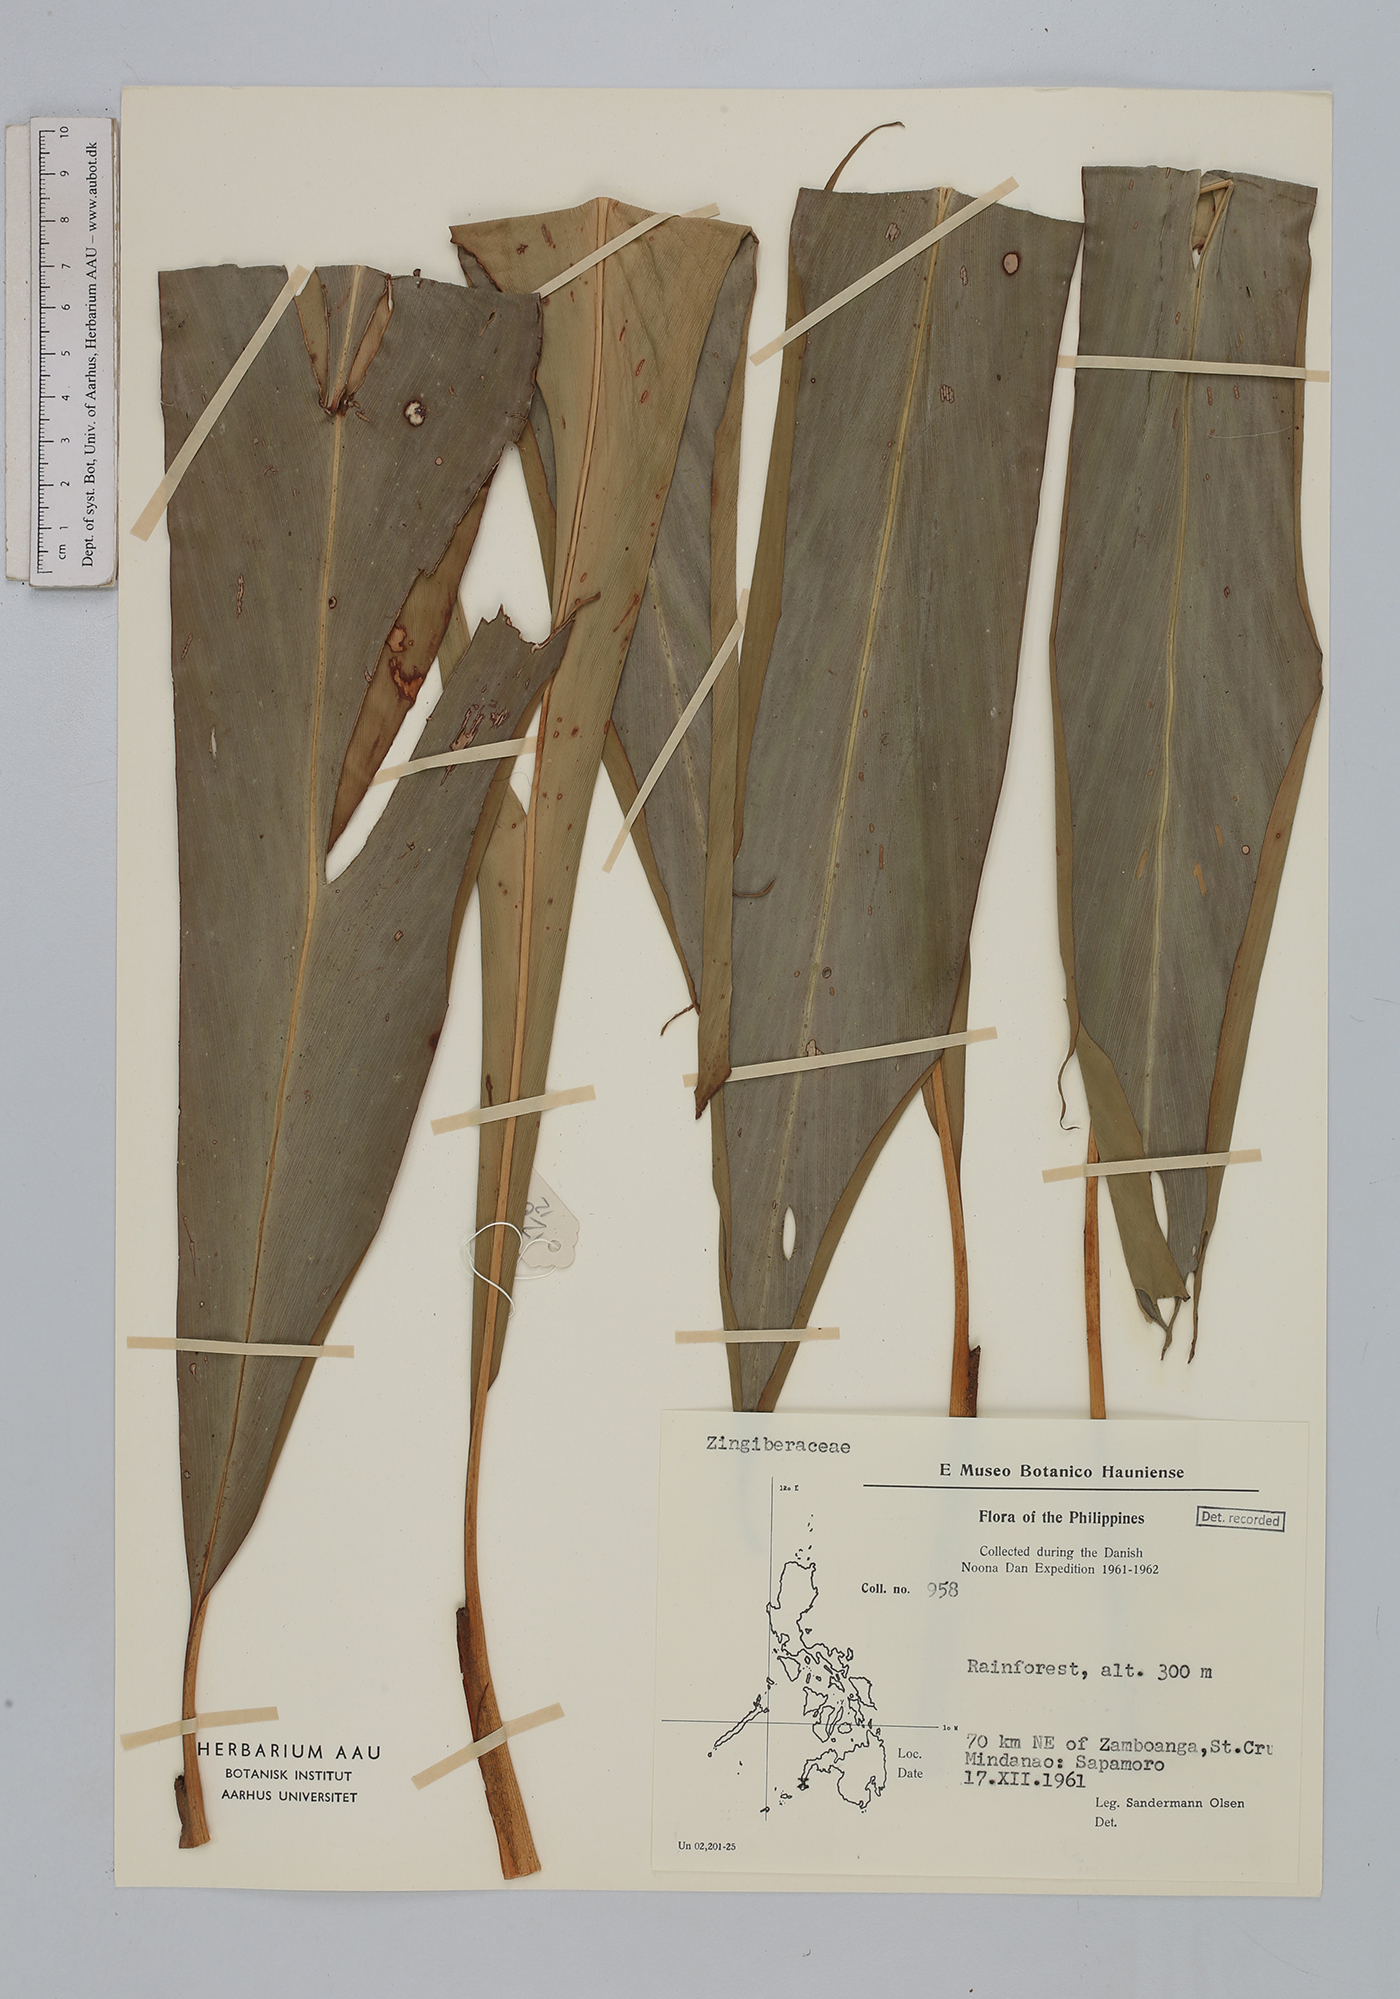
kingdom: Plantae
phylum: Tracheophyta
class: Liliopsida
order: Zingiberales
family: Zingiberaceae
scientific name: Zingiberaceae
